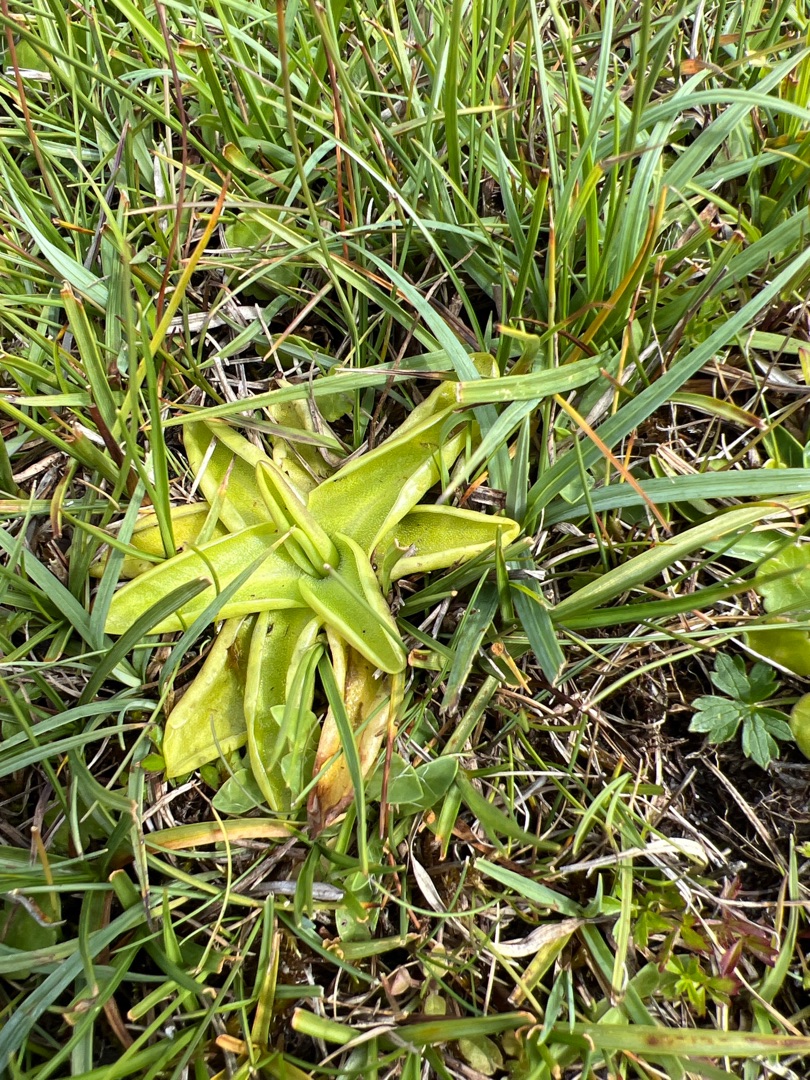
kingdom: Plantae
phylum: Tracheophyta
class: Magnoliopsida
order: Lamiales
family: Lentibulariaceae
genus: Pinguicula
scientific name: Pinguicula vulgaris
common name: Vibefedt
